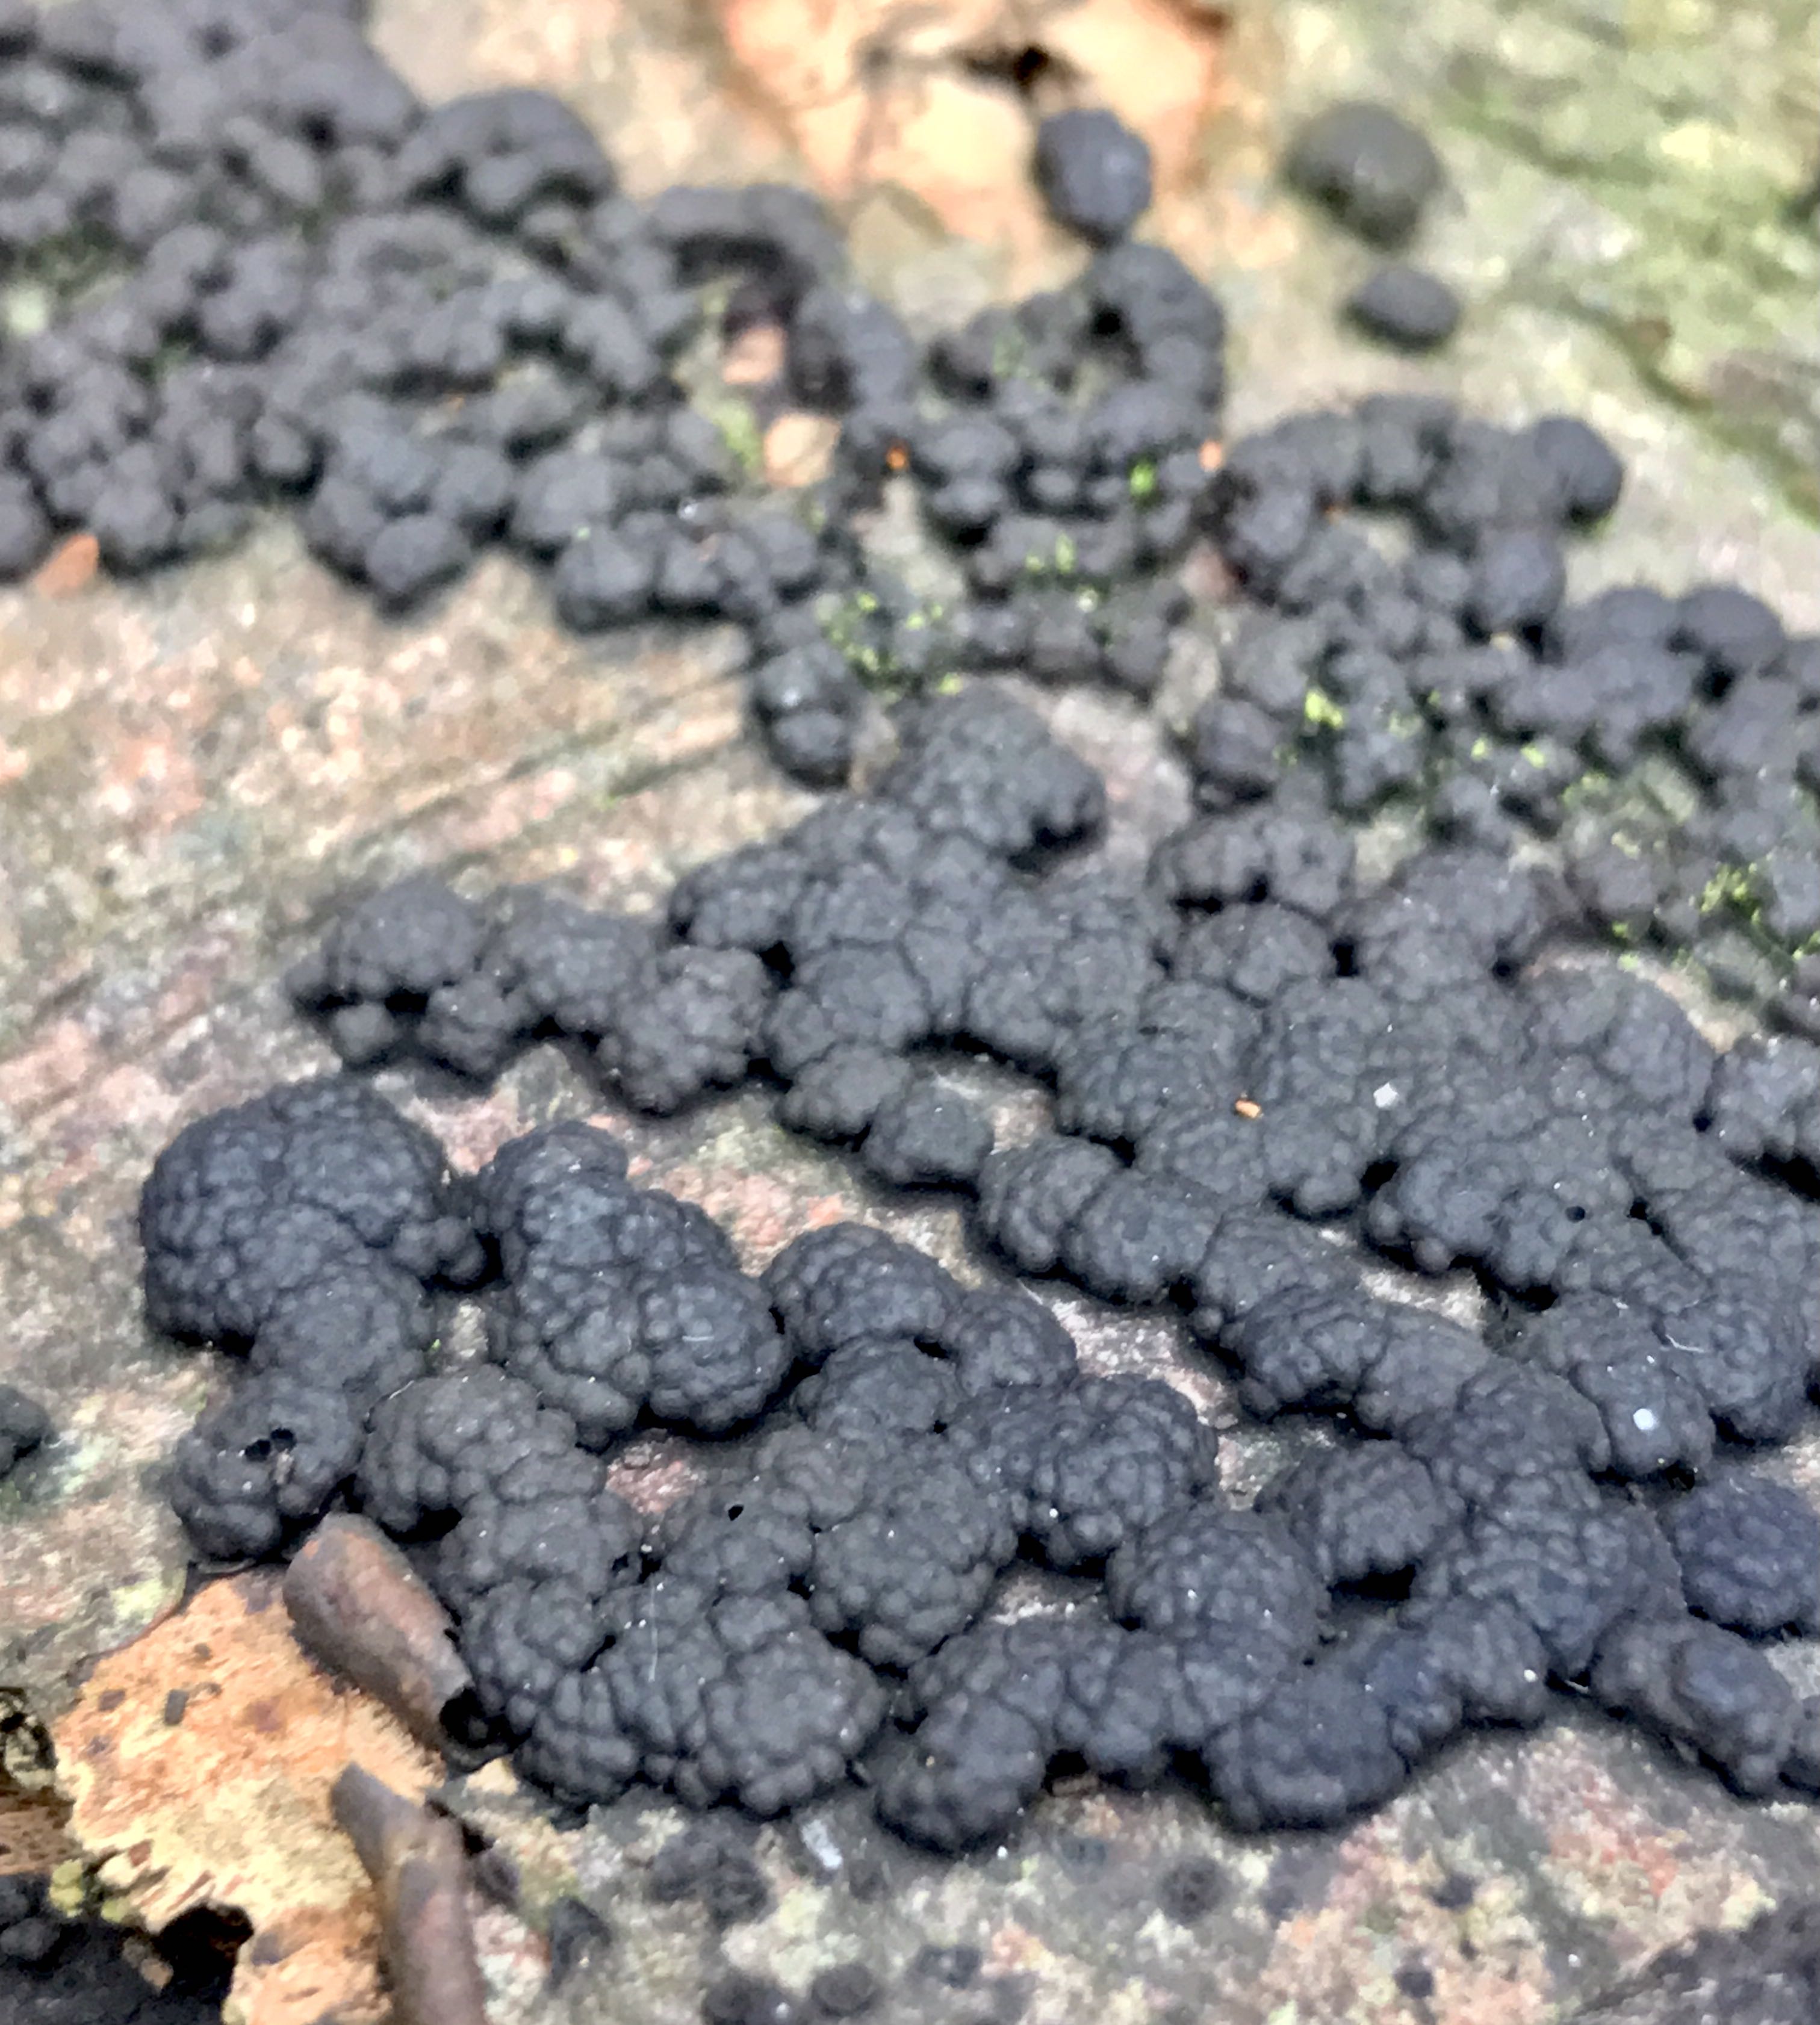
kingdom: Fungi
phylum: Ascomycota
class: Sordariomycetes
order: Xylariales
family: Hypoxylaceae
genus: Jackrogersella
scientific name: Jackrogersella cohaerens
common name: sammenflydende kulbær
